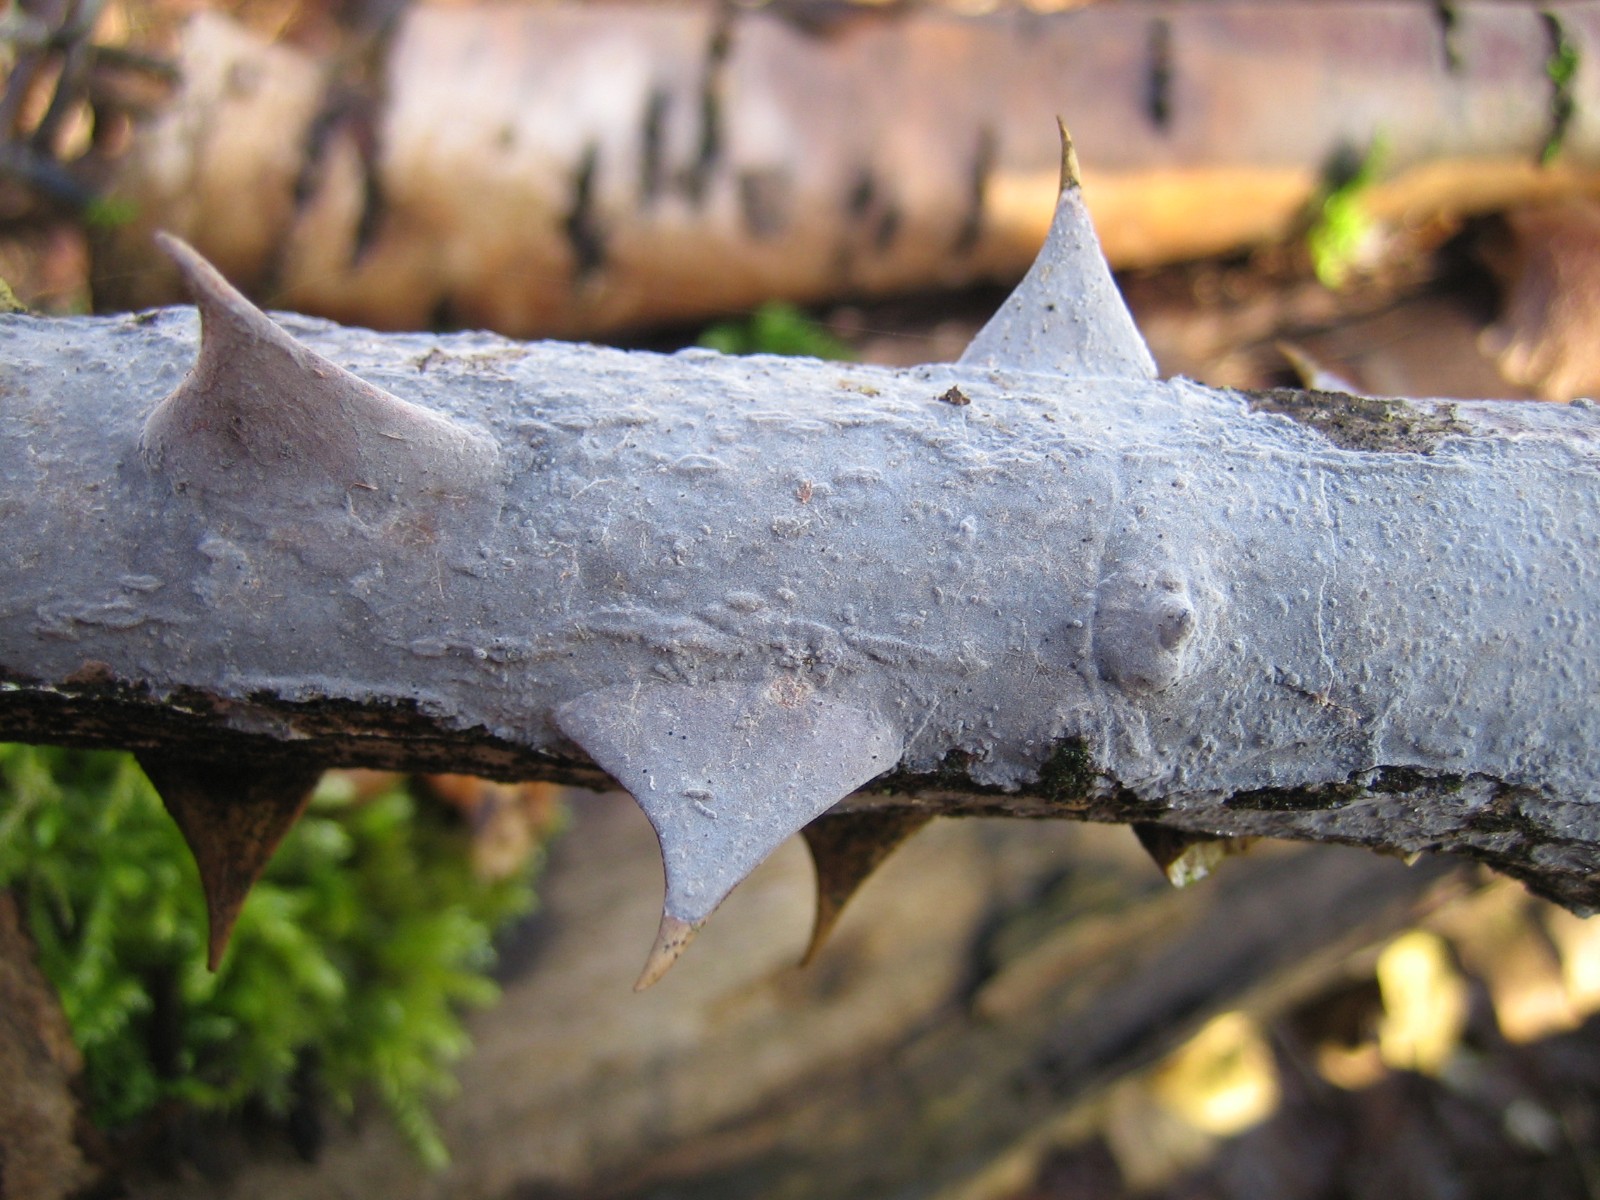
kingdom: Fungi
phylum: Basidiomycota
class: Agaricomycetes
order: Russulales
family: Peniophoraceae
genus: Peniophora
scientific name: Peniophora
